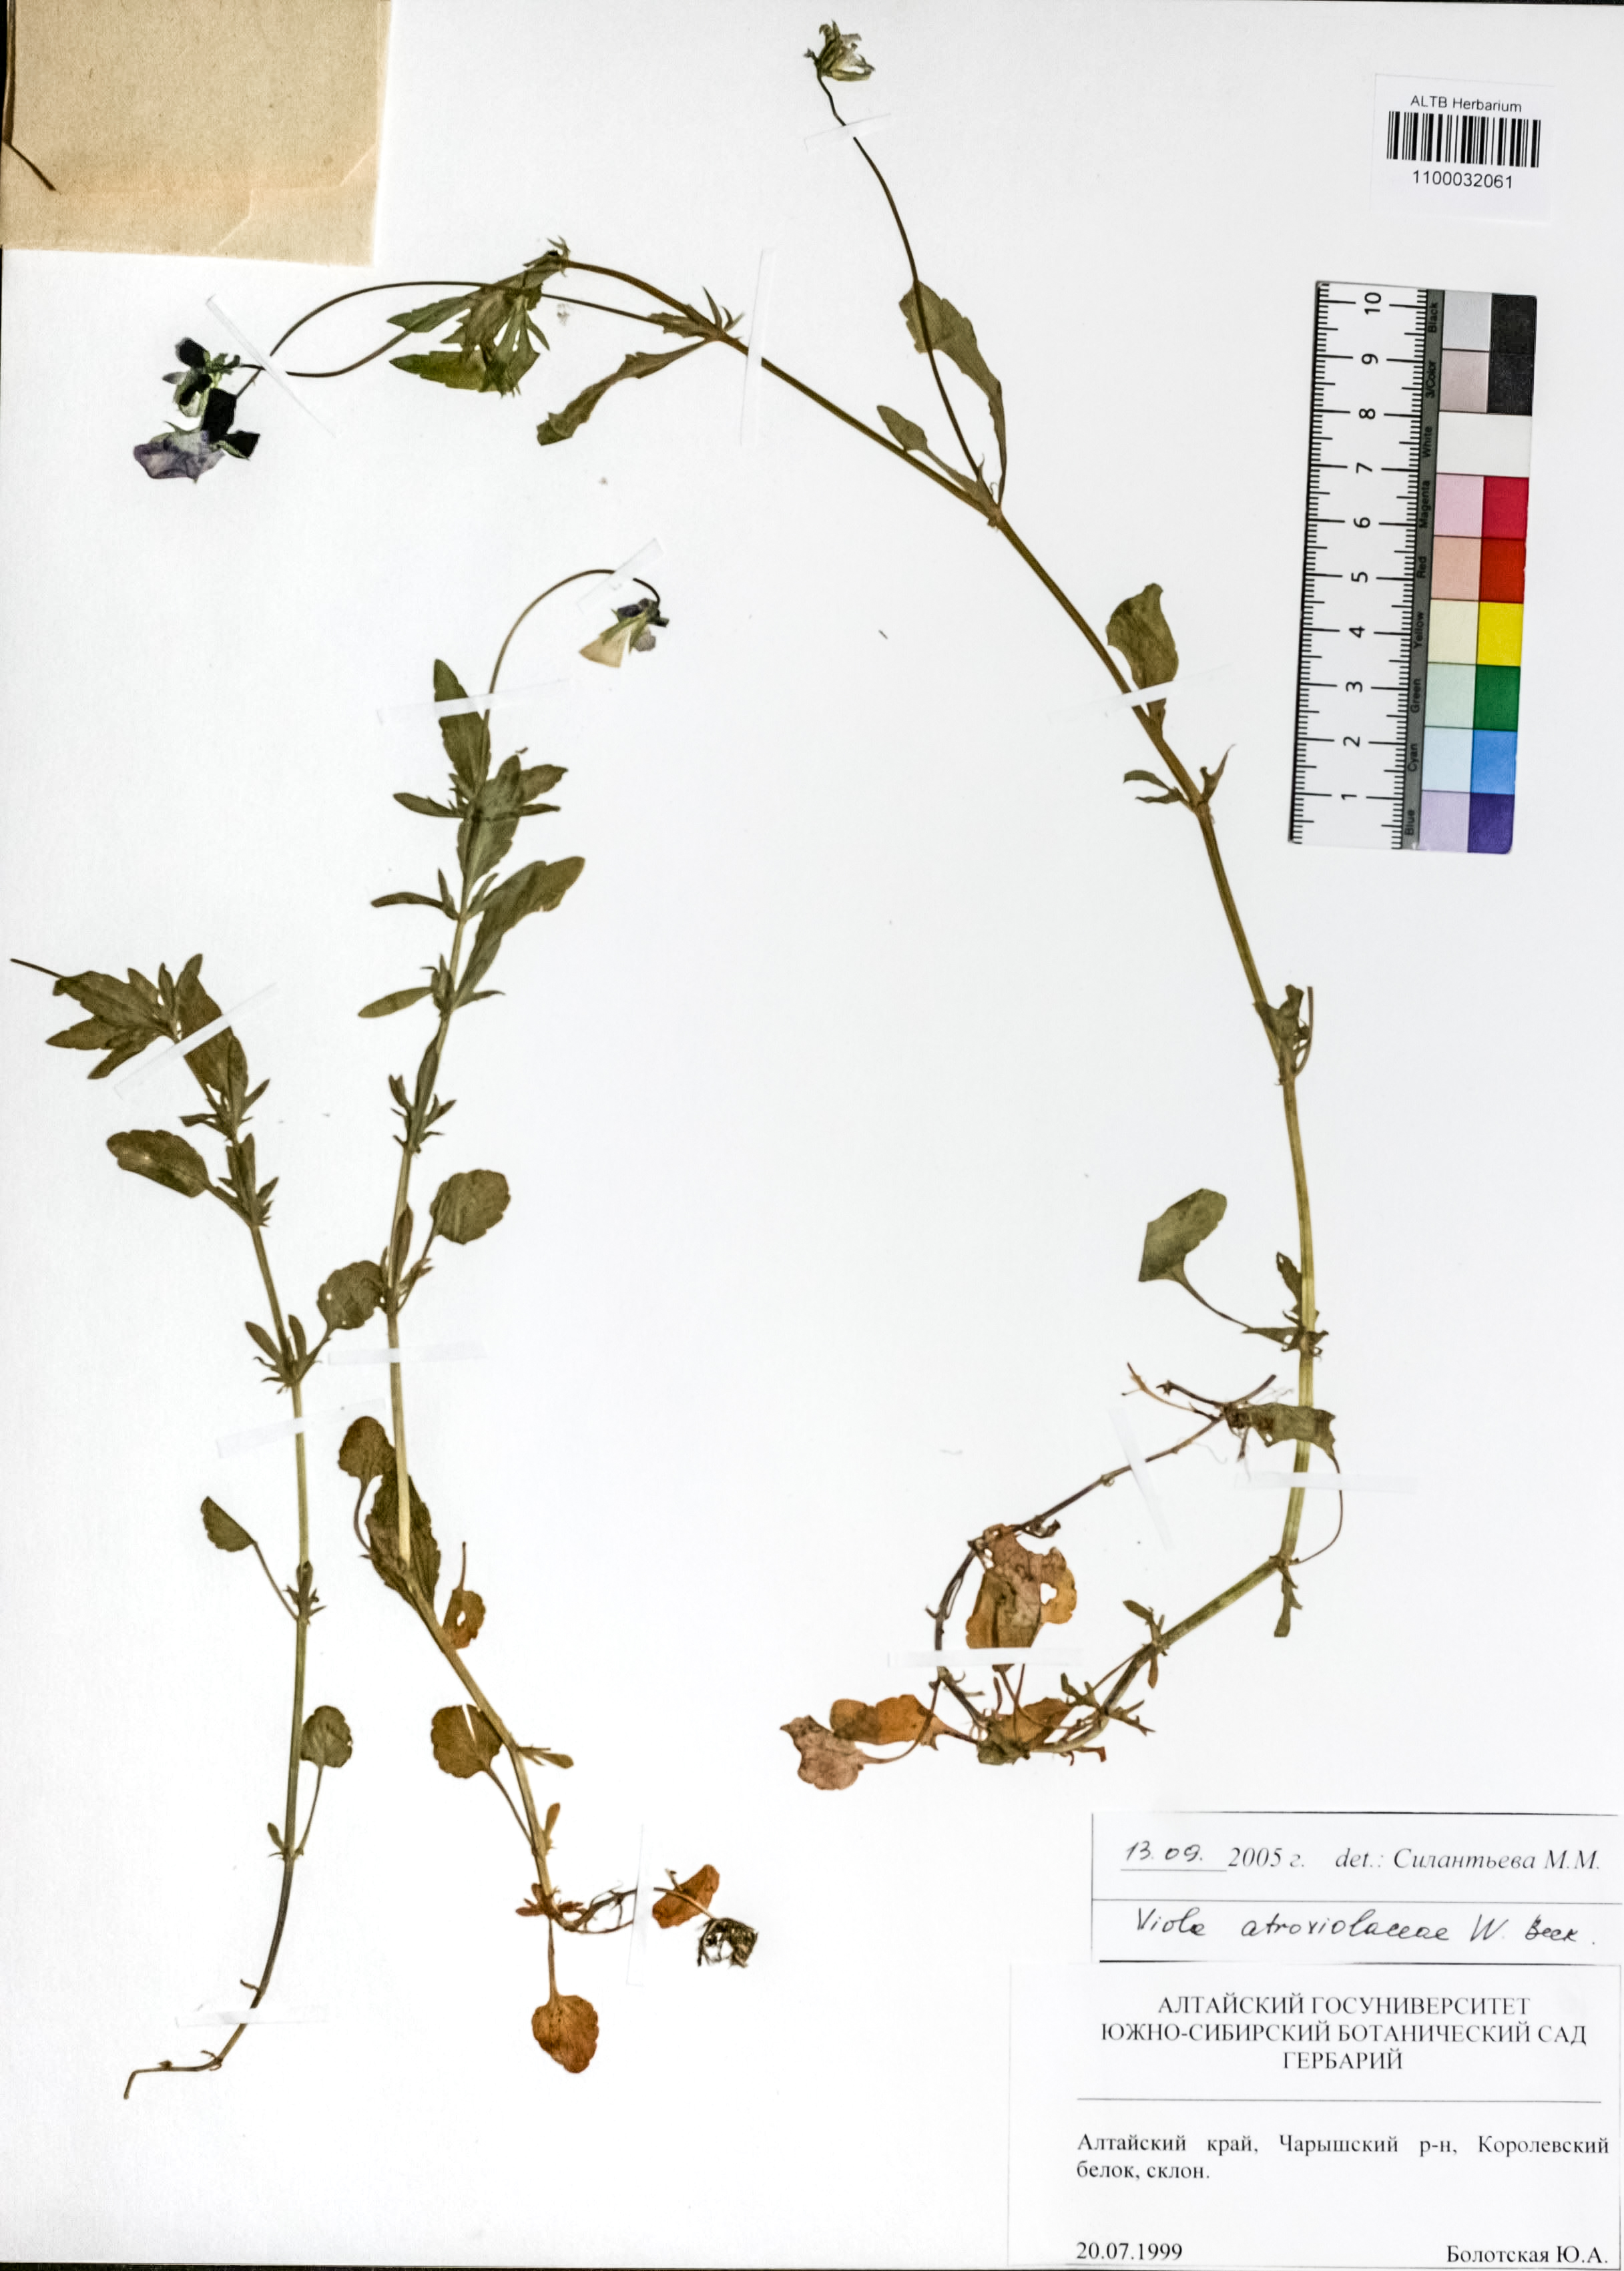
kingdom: Plantae
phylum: Tracheophyta
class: Magnoliopsida
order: Malpighiales
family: Violaceae
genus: Viola
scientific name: Viola tricolor
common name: Pansy
